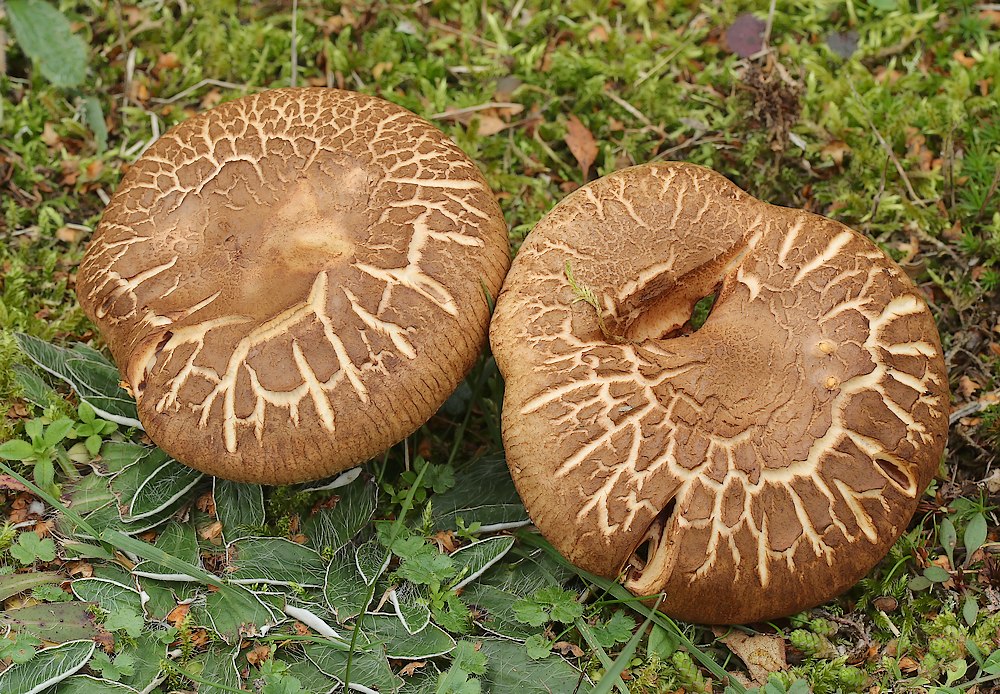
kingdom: Fungi
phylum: Basidiomycota
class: Agaricomycetes
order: Boletales
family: Paxillaceae
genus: Paxillus
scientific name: Paxillus involutus
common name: almindelig netbladhat
